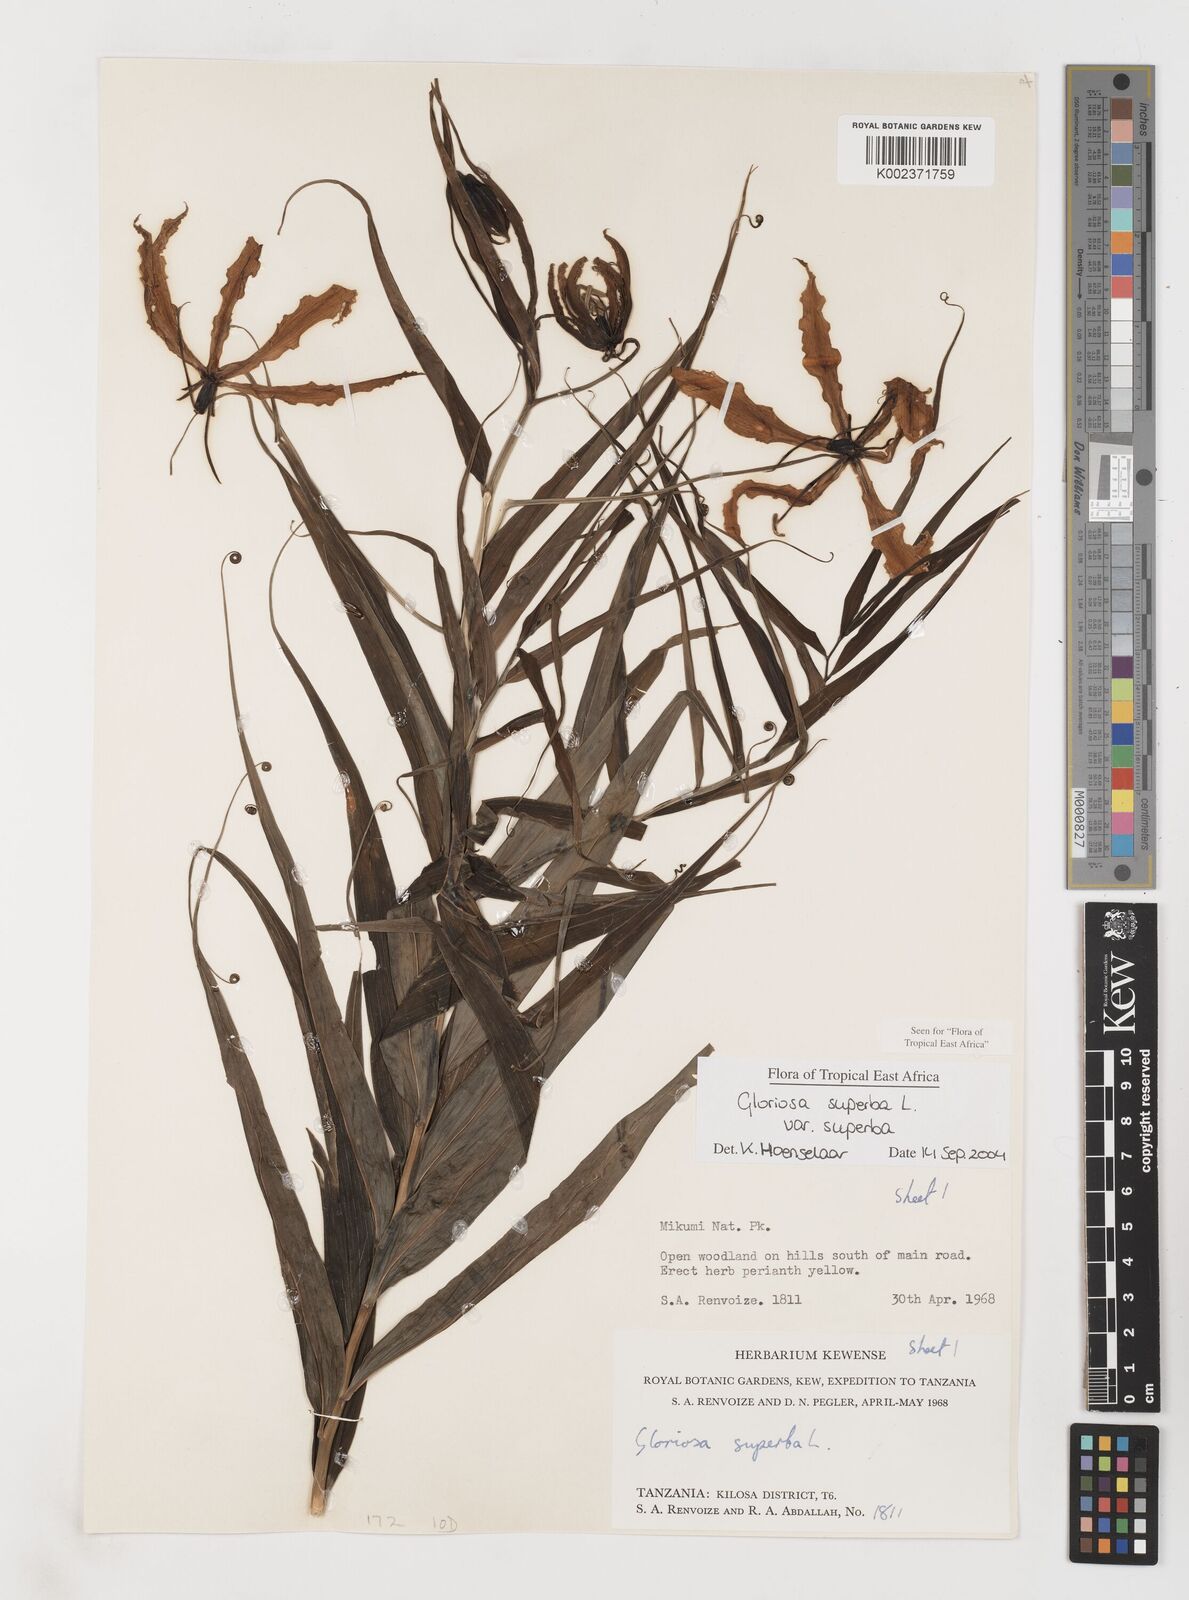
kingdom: Plantae
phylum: Tracheophyta
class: Liliopsida
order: Liliales
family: Colchicaceae
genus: Gloriosa
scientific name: Gloriosa superba
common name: Flame lily
